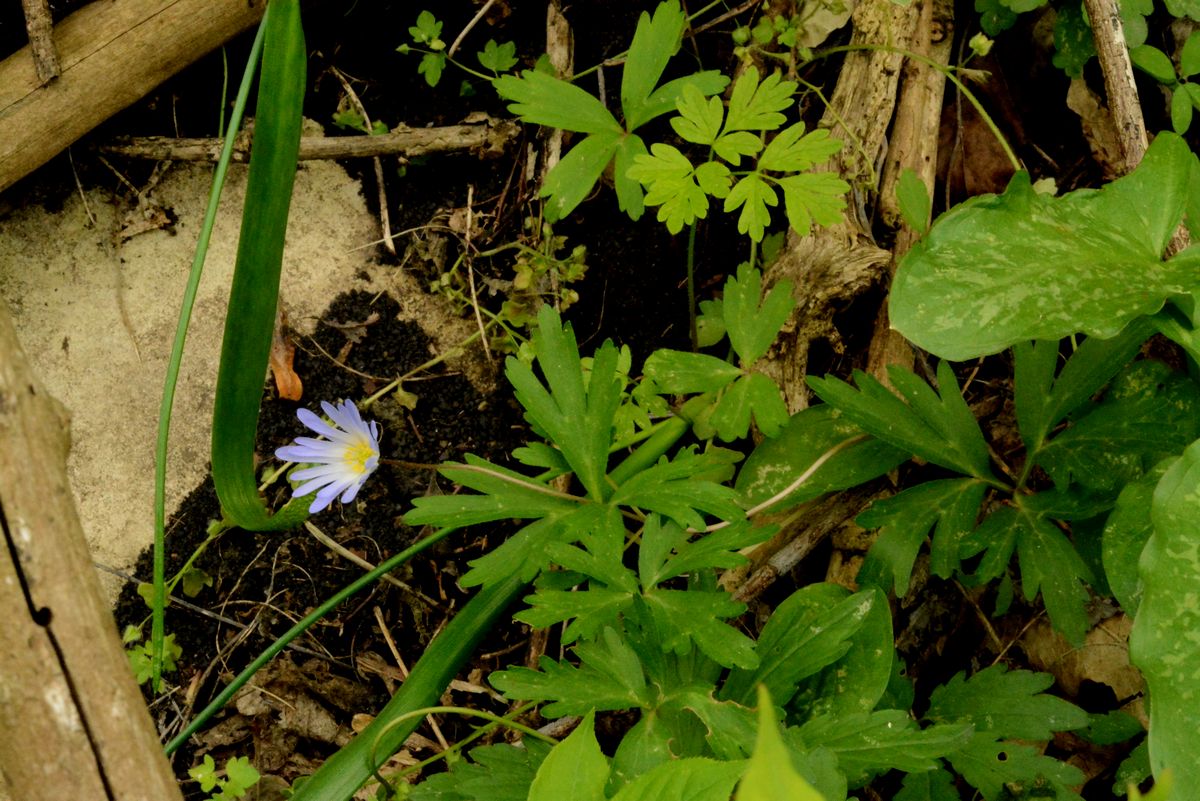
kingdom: Plantae
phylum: Tracheophyta
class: Magnoliopsida
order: Ranunculales
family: Ranunculaceae
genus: Anemone
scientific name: Anemone blanda
